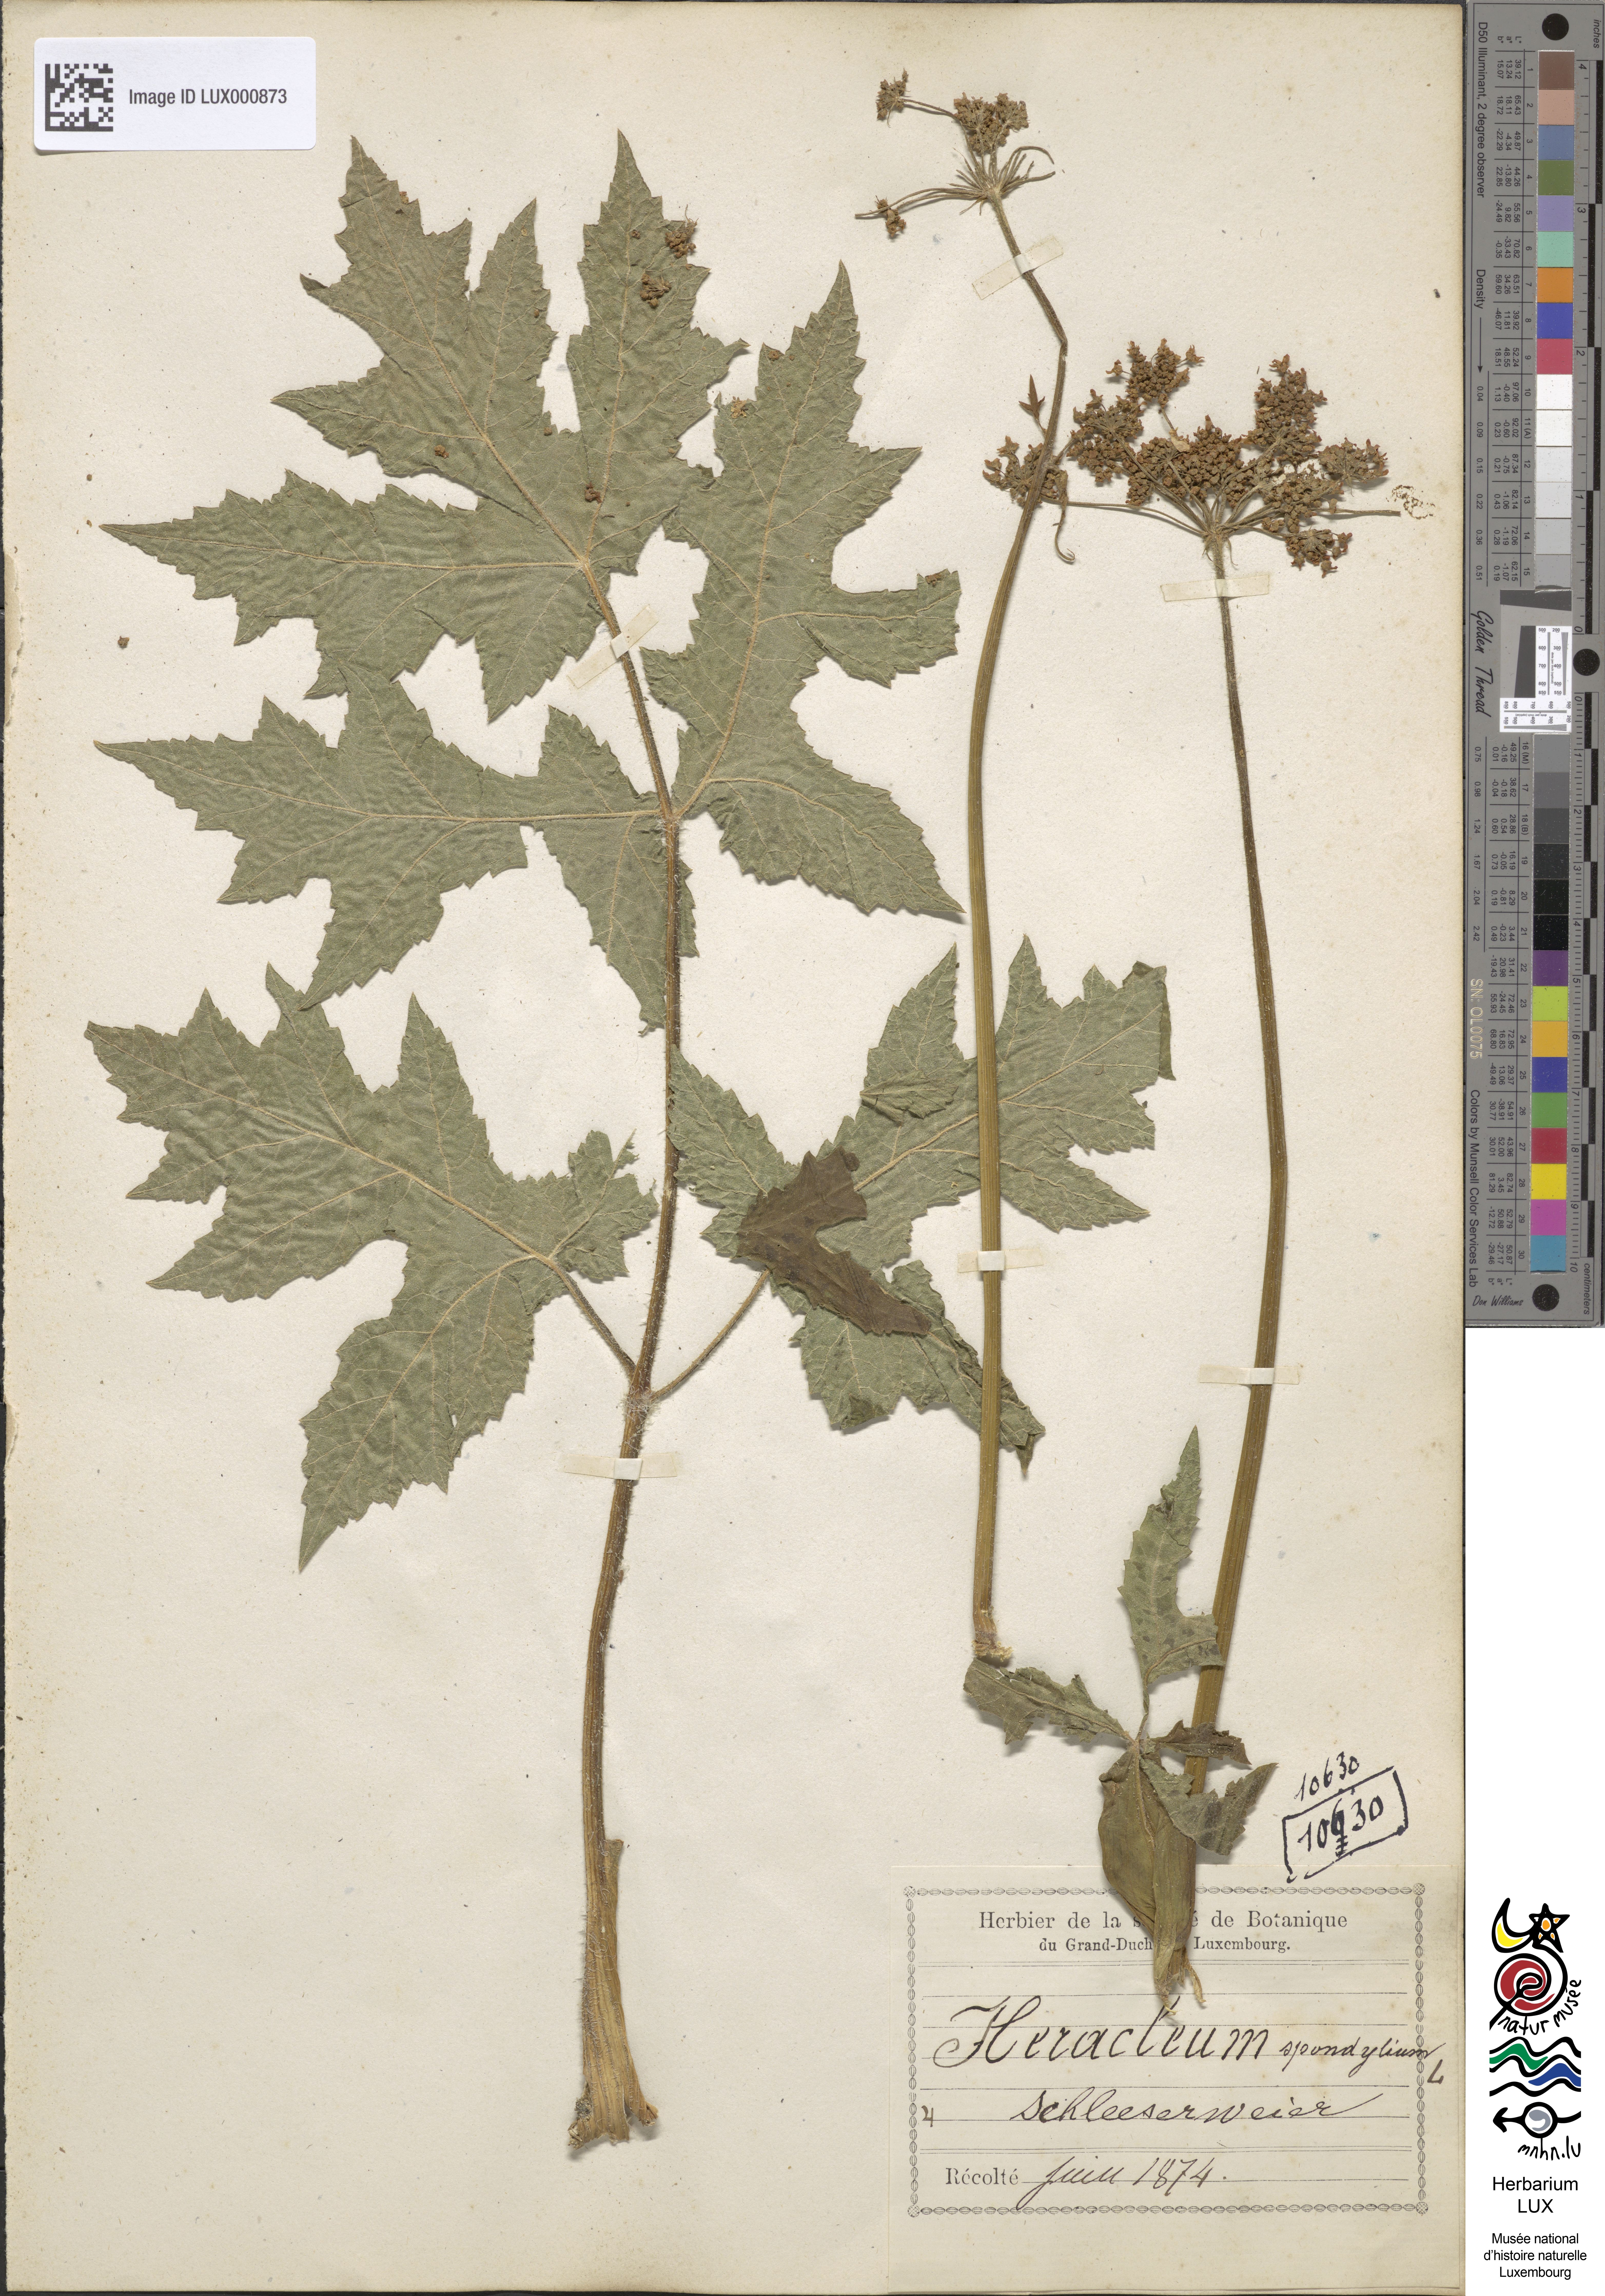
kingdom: Plantae
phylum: Tracheophyta
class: Magnoliopsida
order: Apiales
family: Apiaceae
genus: Heracleum
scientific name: Heracleum sphondylium
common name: Hogweed
